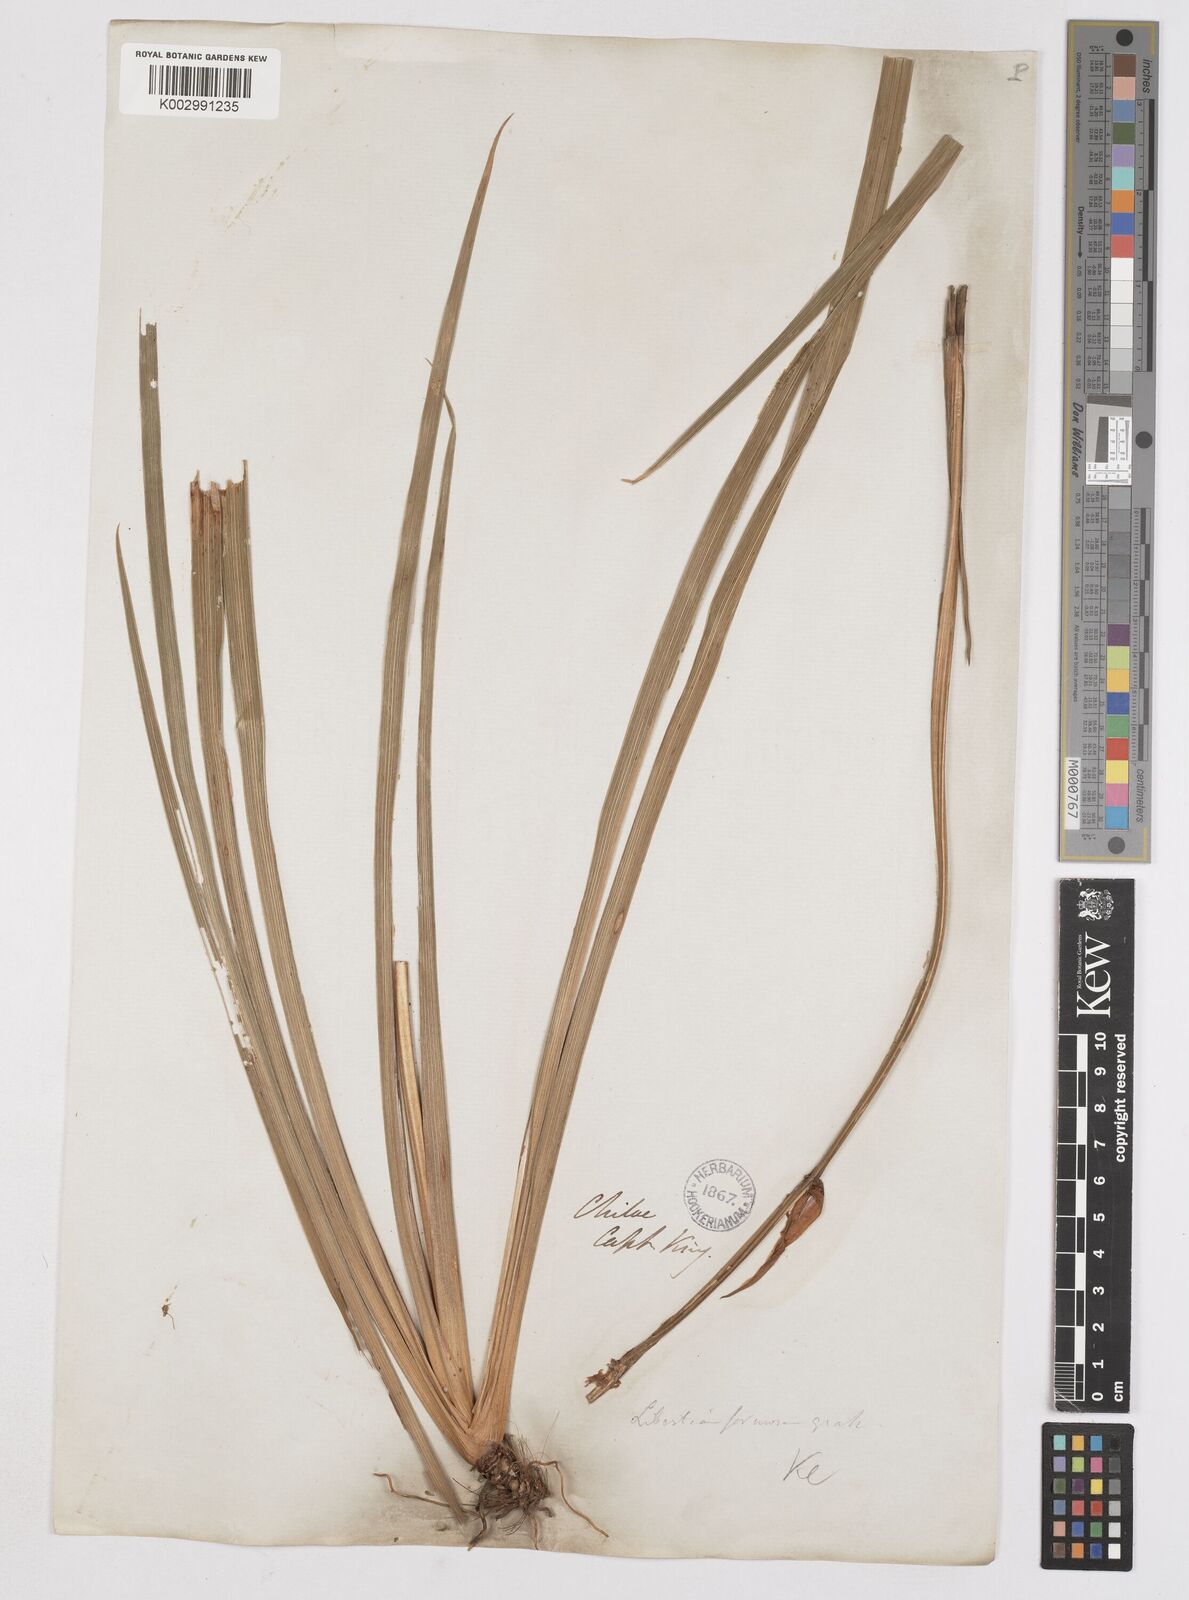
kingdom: Plantae
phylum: Tracheophyta
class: Liliopsida
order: Asparagales
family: Iridaceae
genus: Libertia
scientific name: Libertia chilensis
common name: Satin flower
